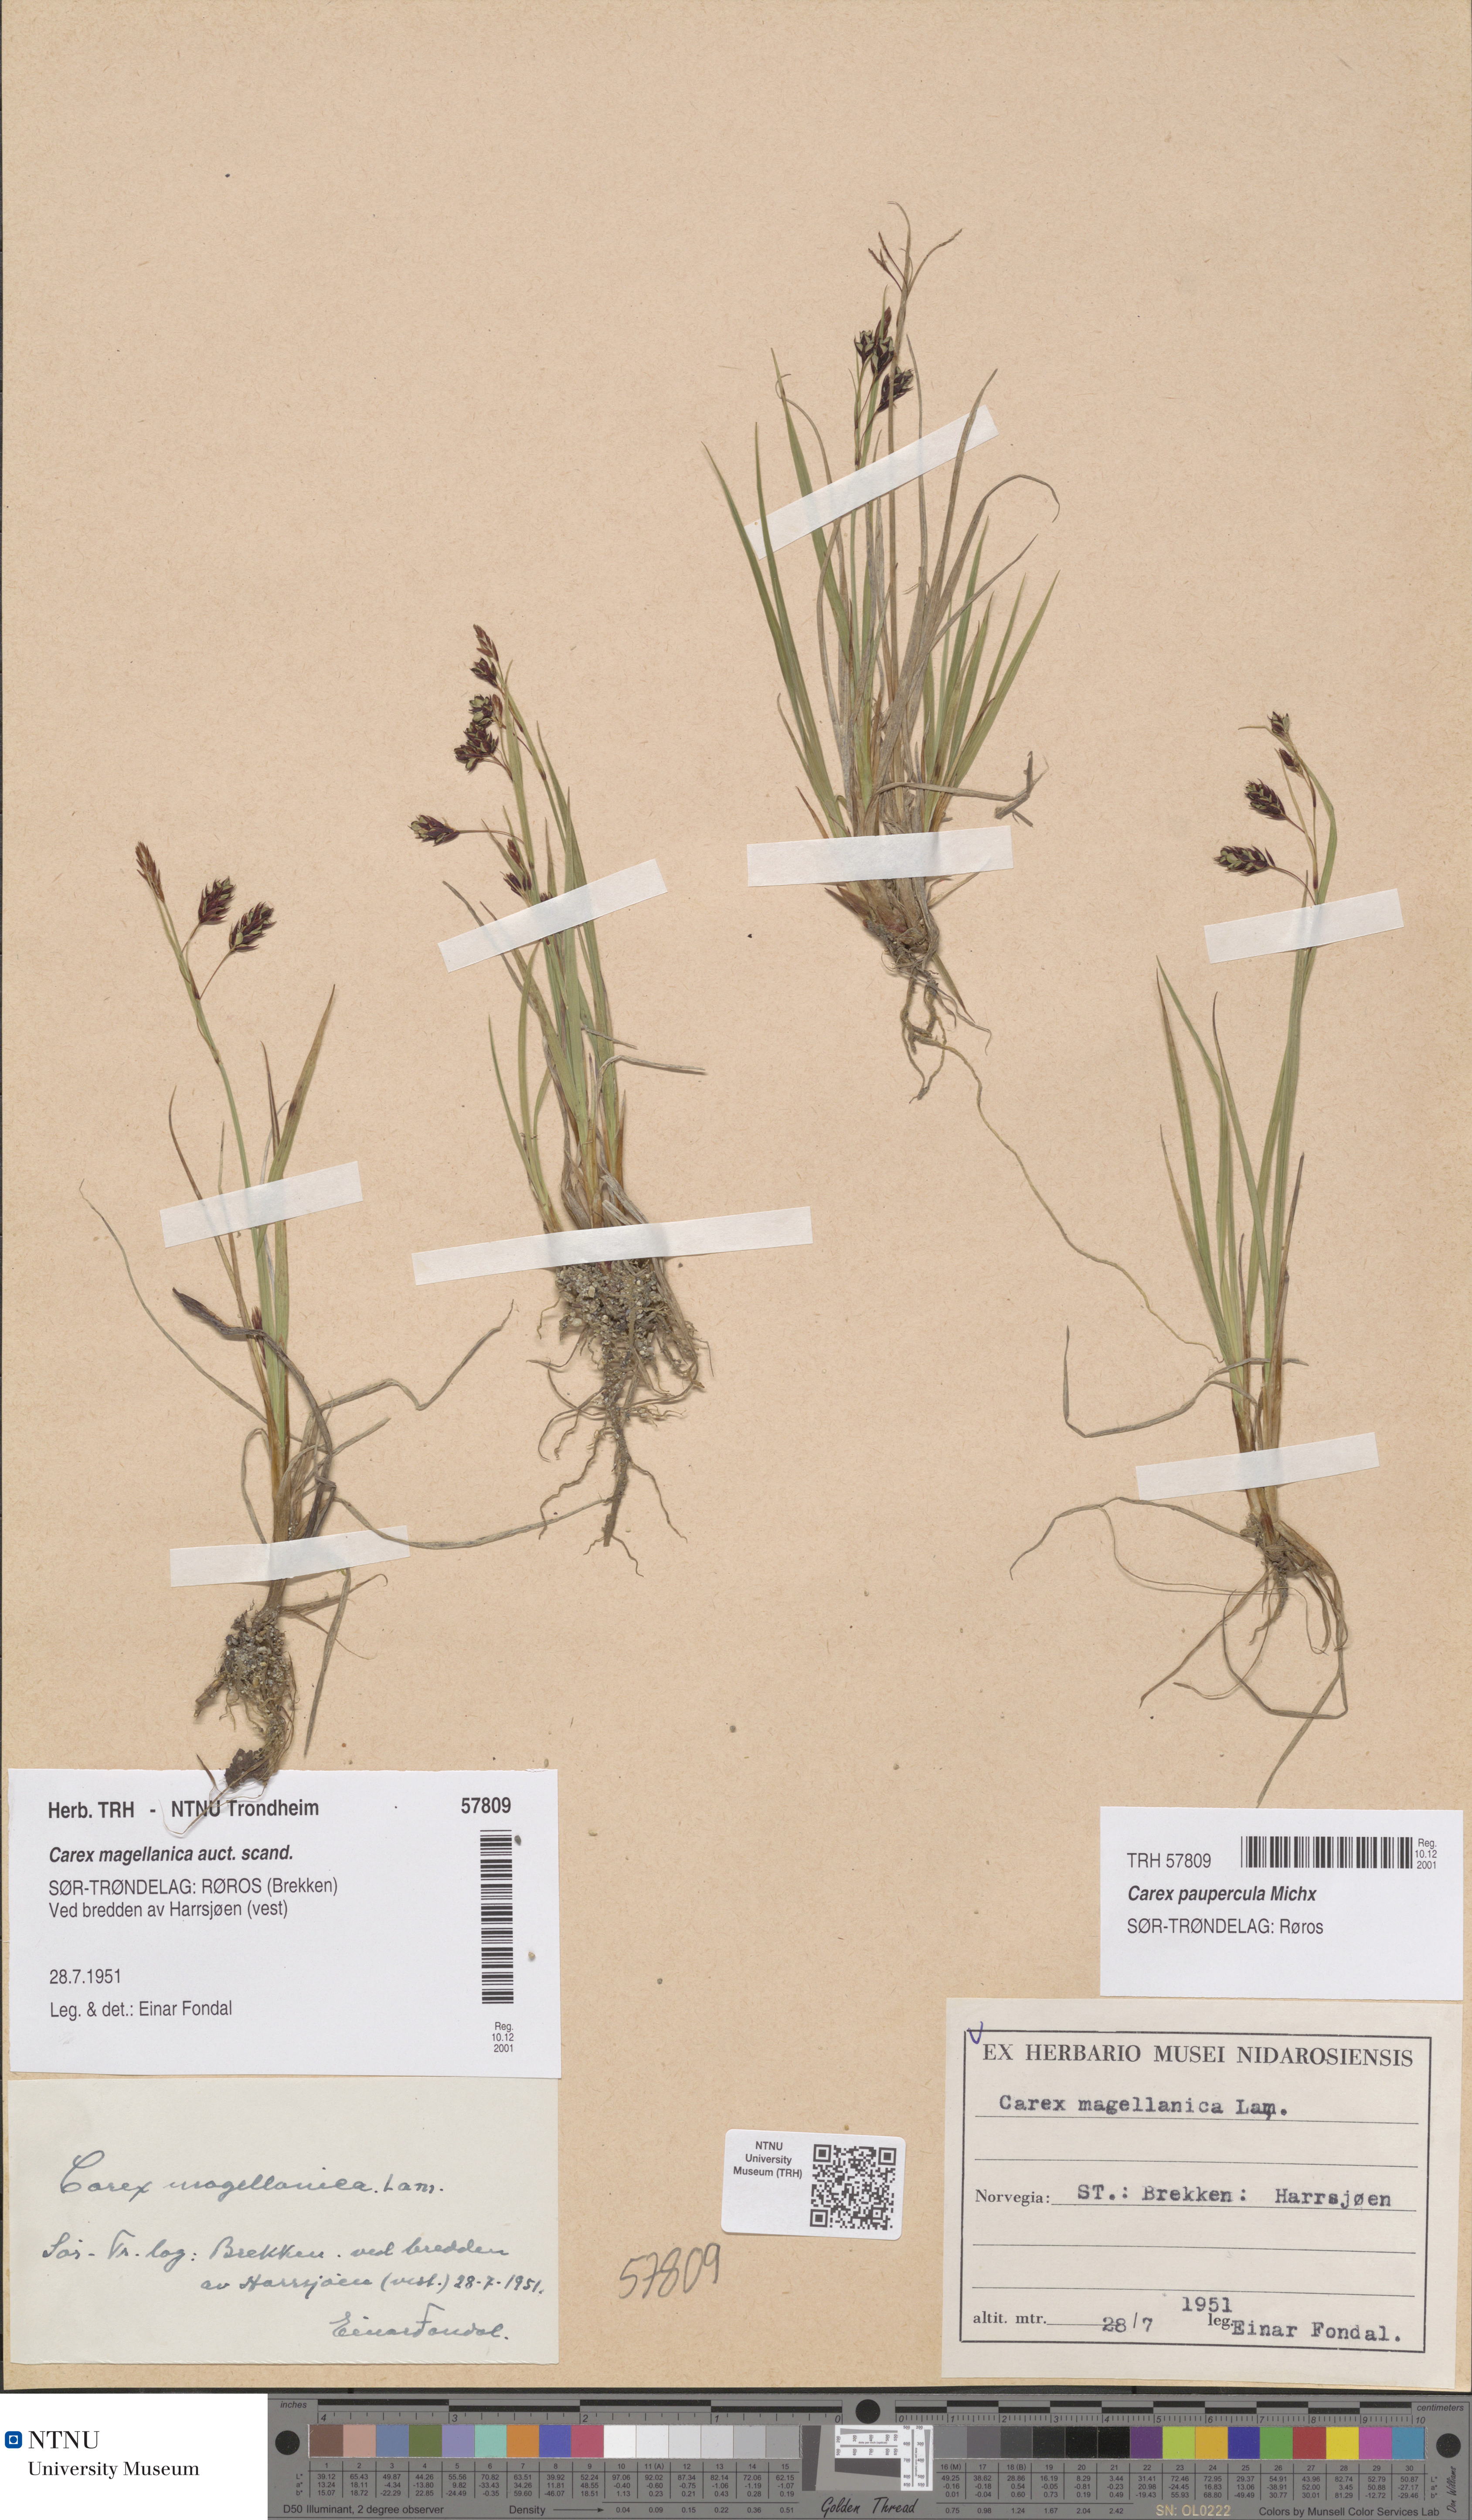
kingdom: Plantae
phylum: Tracheophyta
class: Liliopsida
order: Poales
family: Cyperaceae
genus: Carex
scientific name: Carex magellanica
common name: Bog sedge
